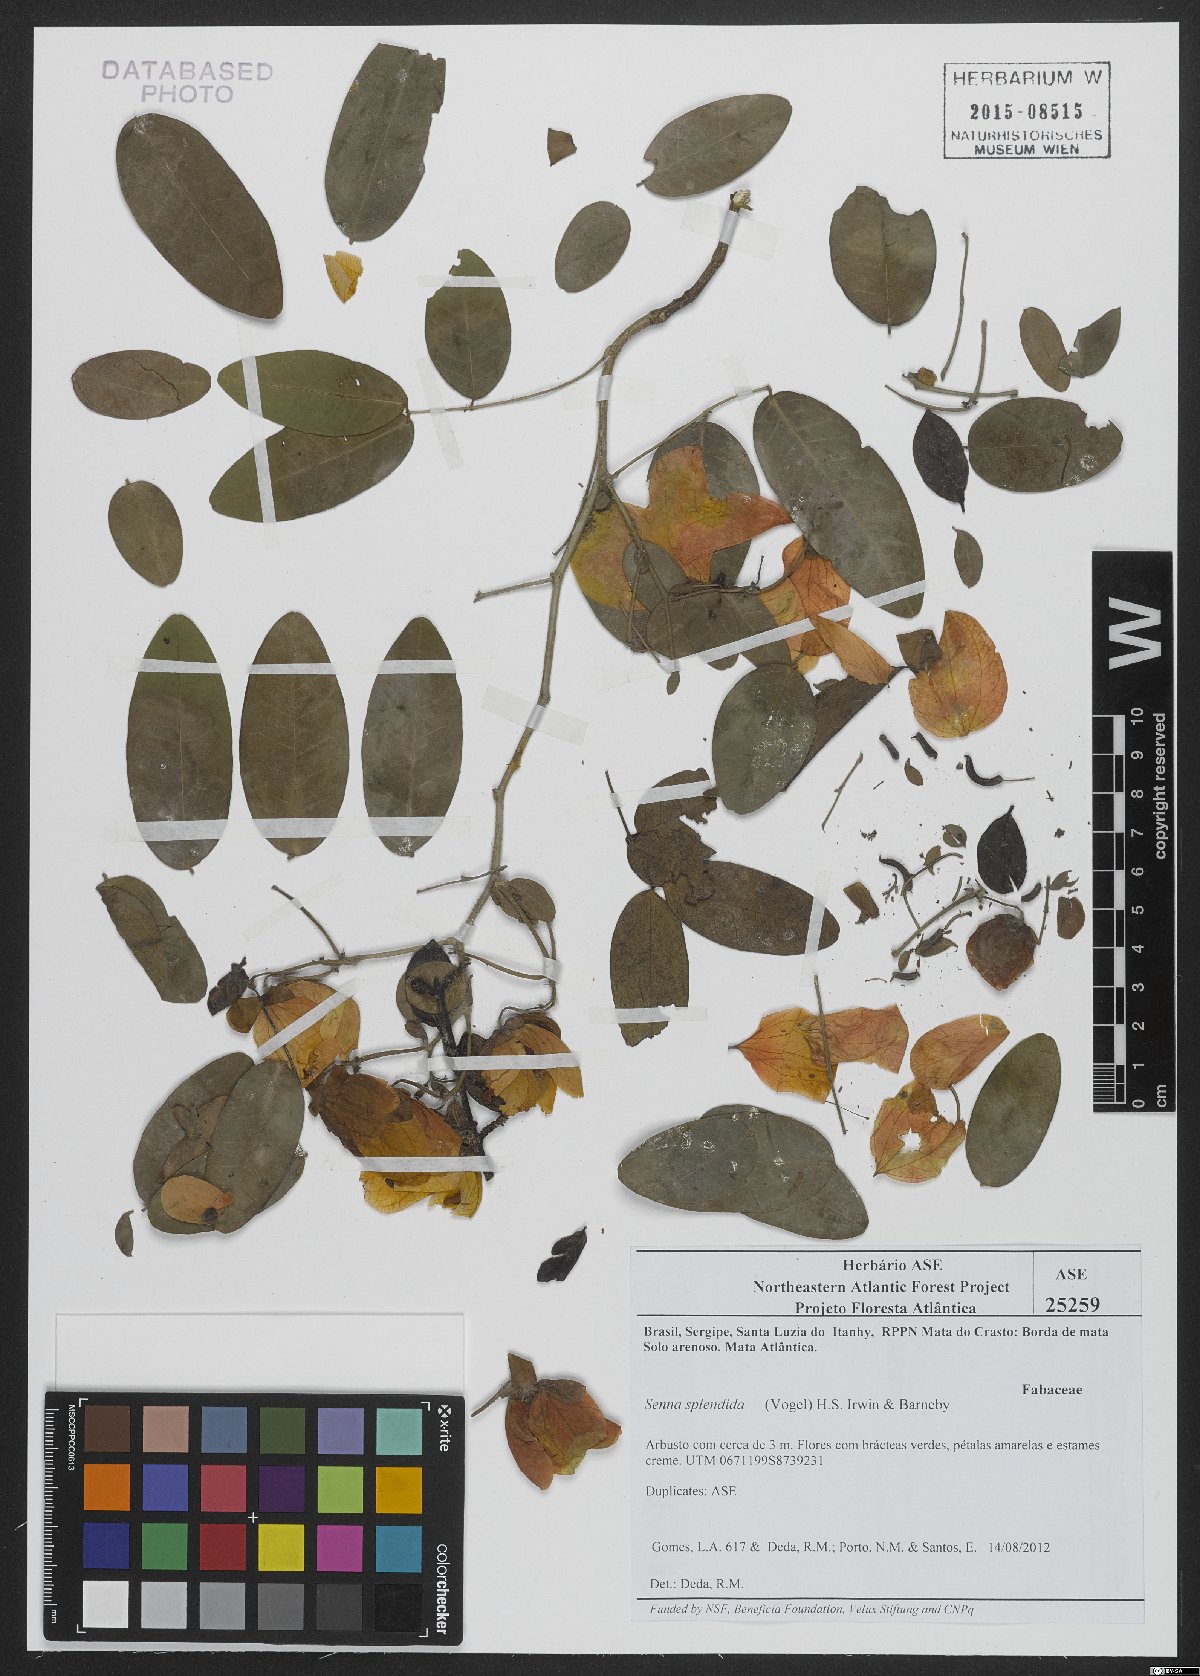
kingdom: Plantae
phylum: Tracheophyta
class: Magnoliopsida
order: Fabales
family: Fabaceae
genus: Senna
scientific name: Senna splendida
